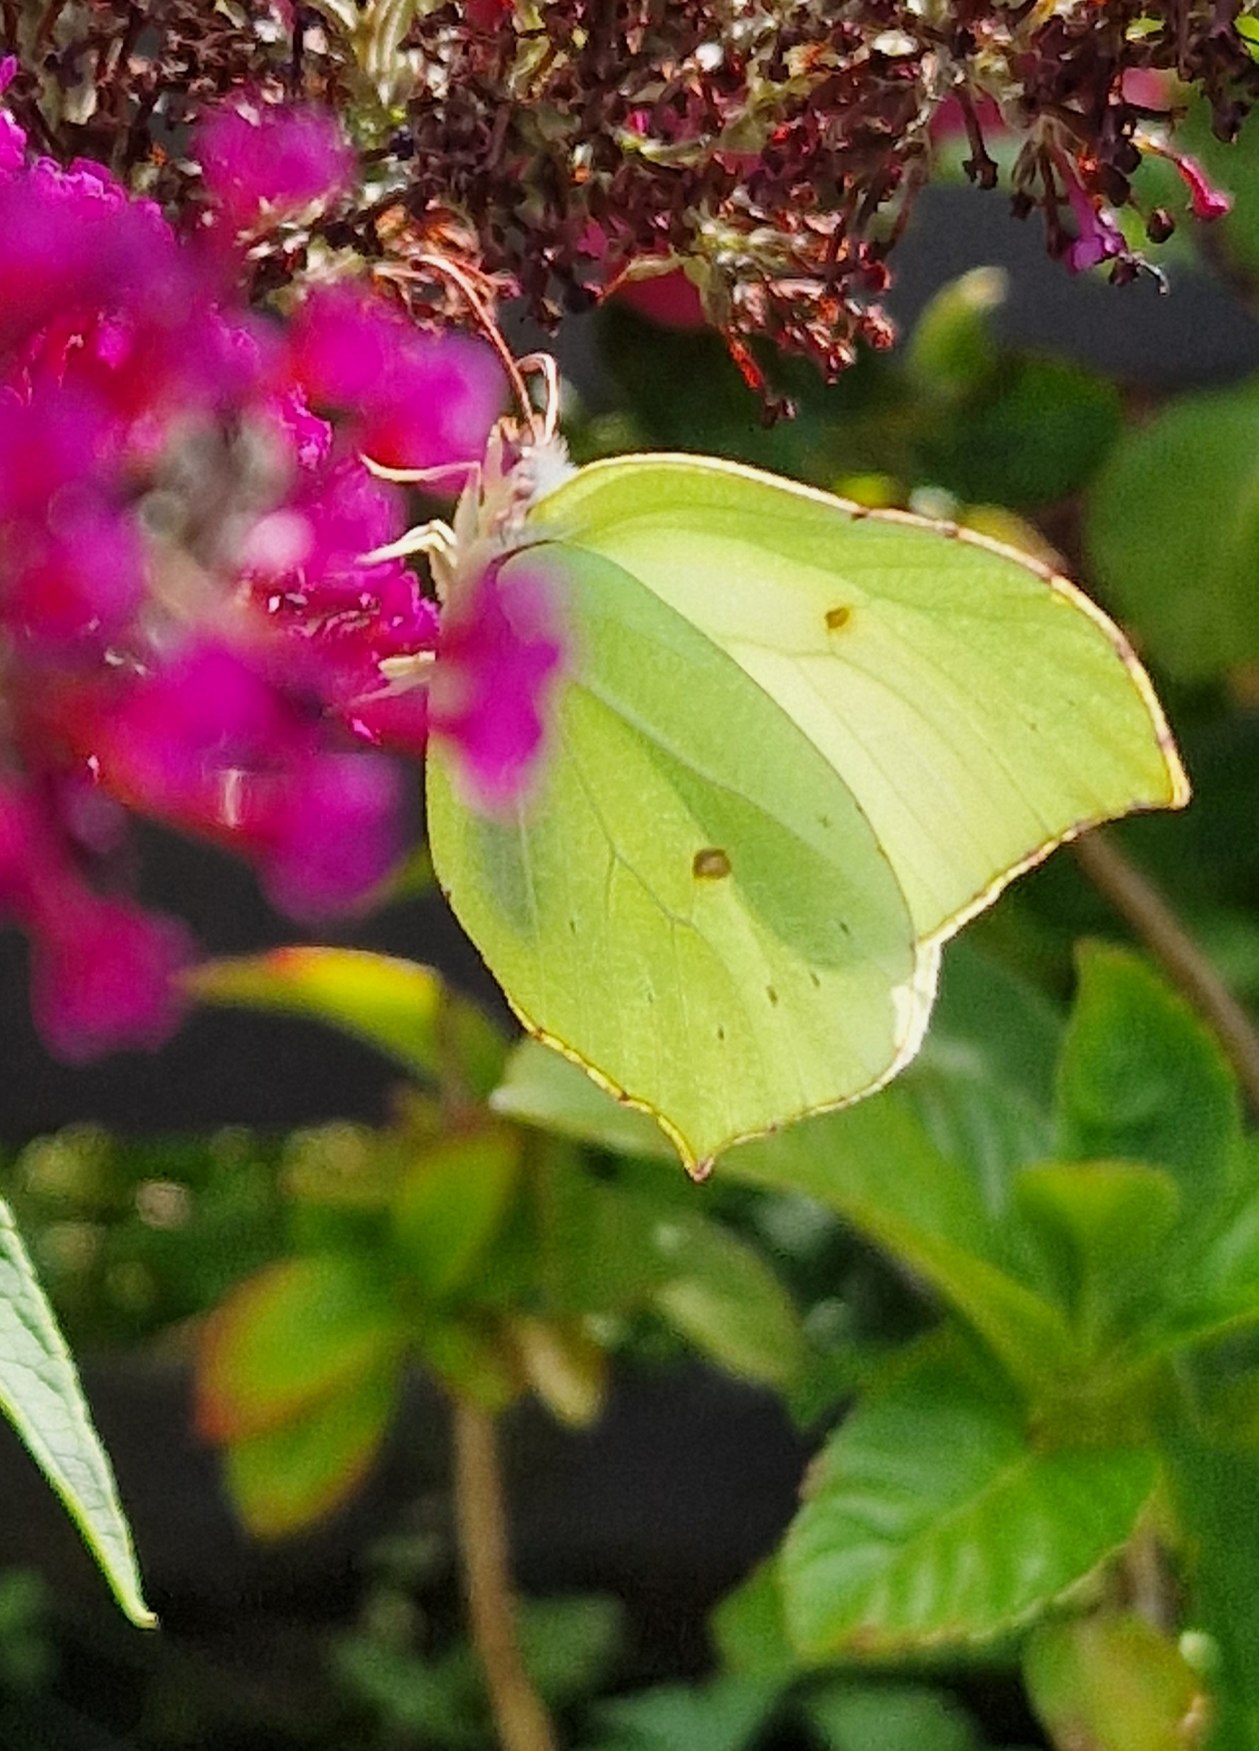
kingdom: Animalia
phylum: Arthropoda
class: Insecta
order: Lepidoptera
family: Pieridae
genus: Gonepteryx
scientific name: Gonepteryx rhamni
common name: Citronsommerfugl
